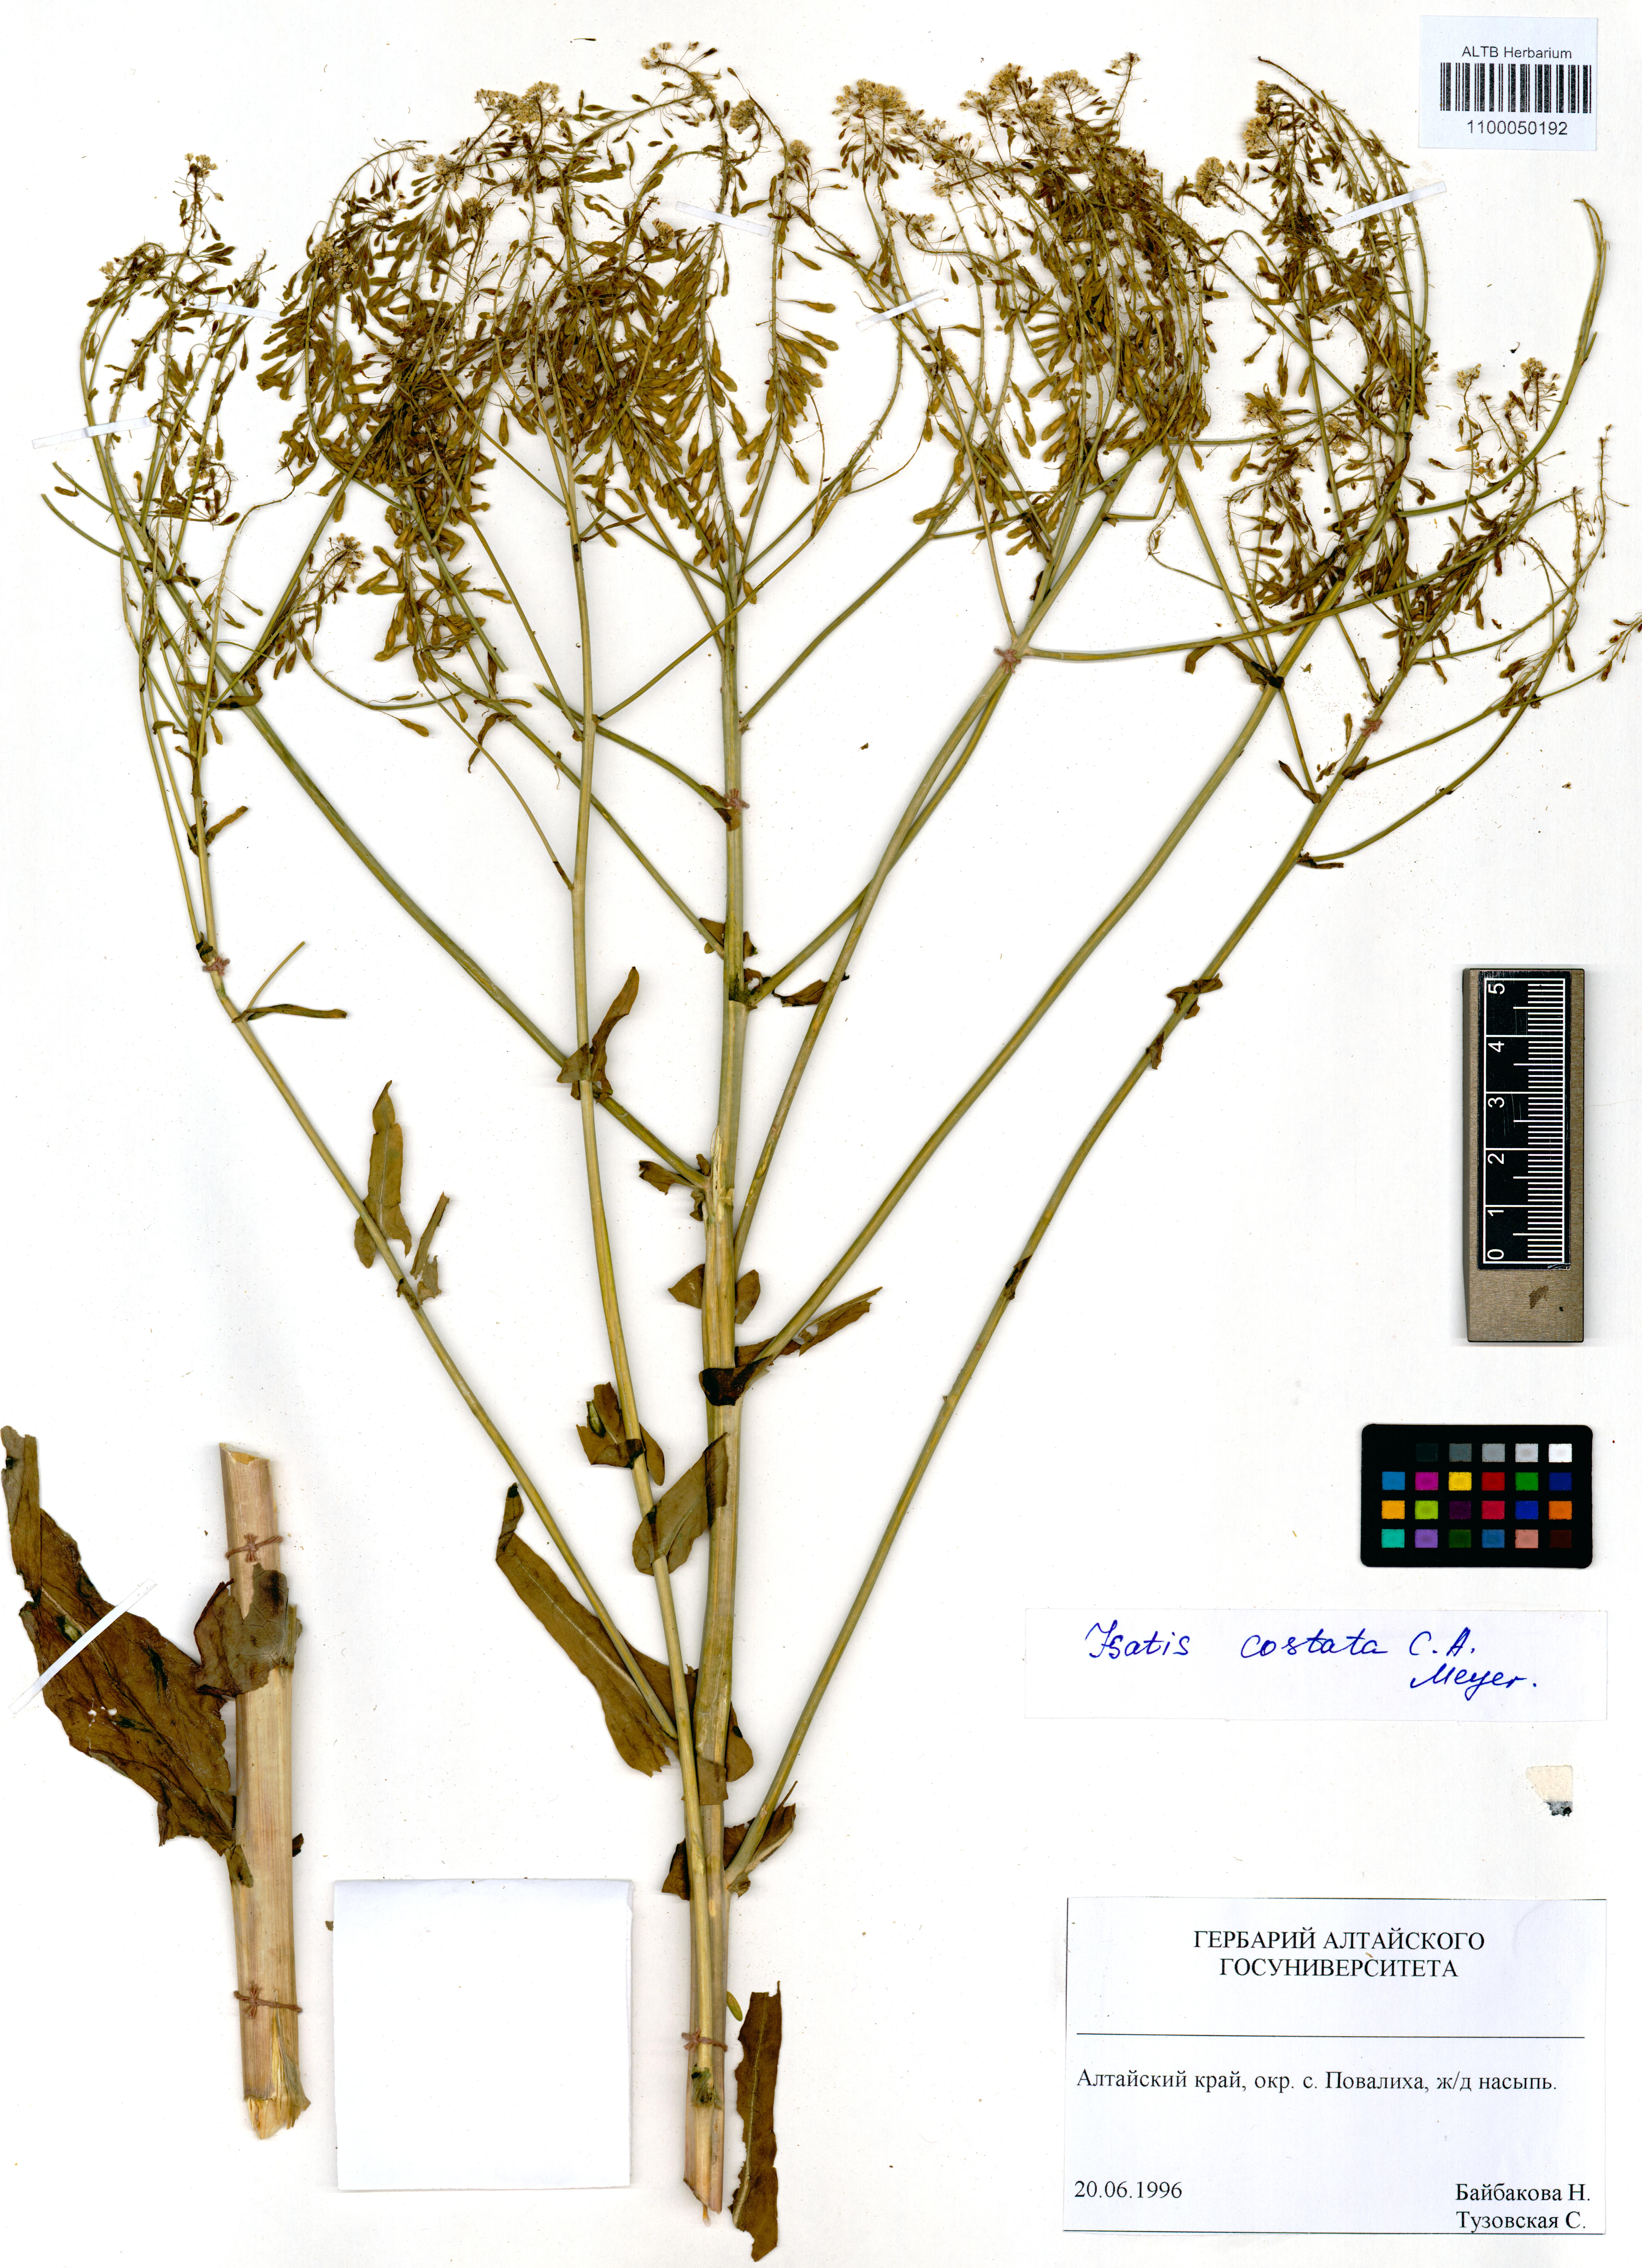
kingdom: Plantae
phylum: Tracheophyta
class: Magnoliopsida
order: Brassicales
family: Brassicaceae
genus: Isatis
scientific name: Isatis costata
